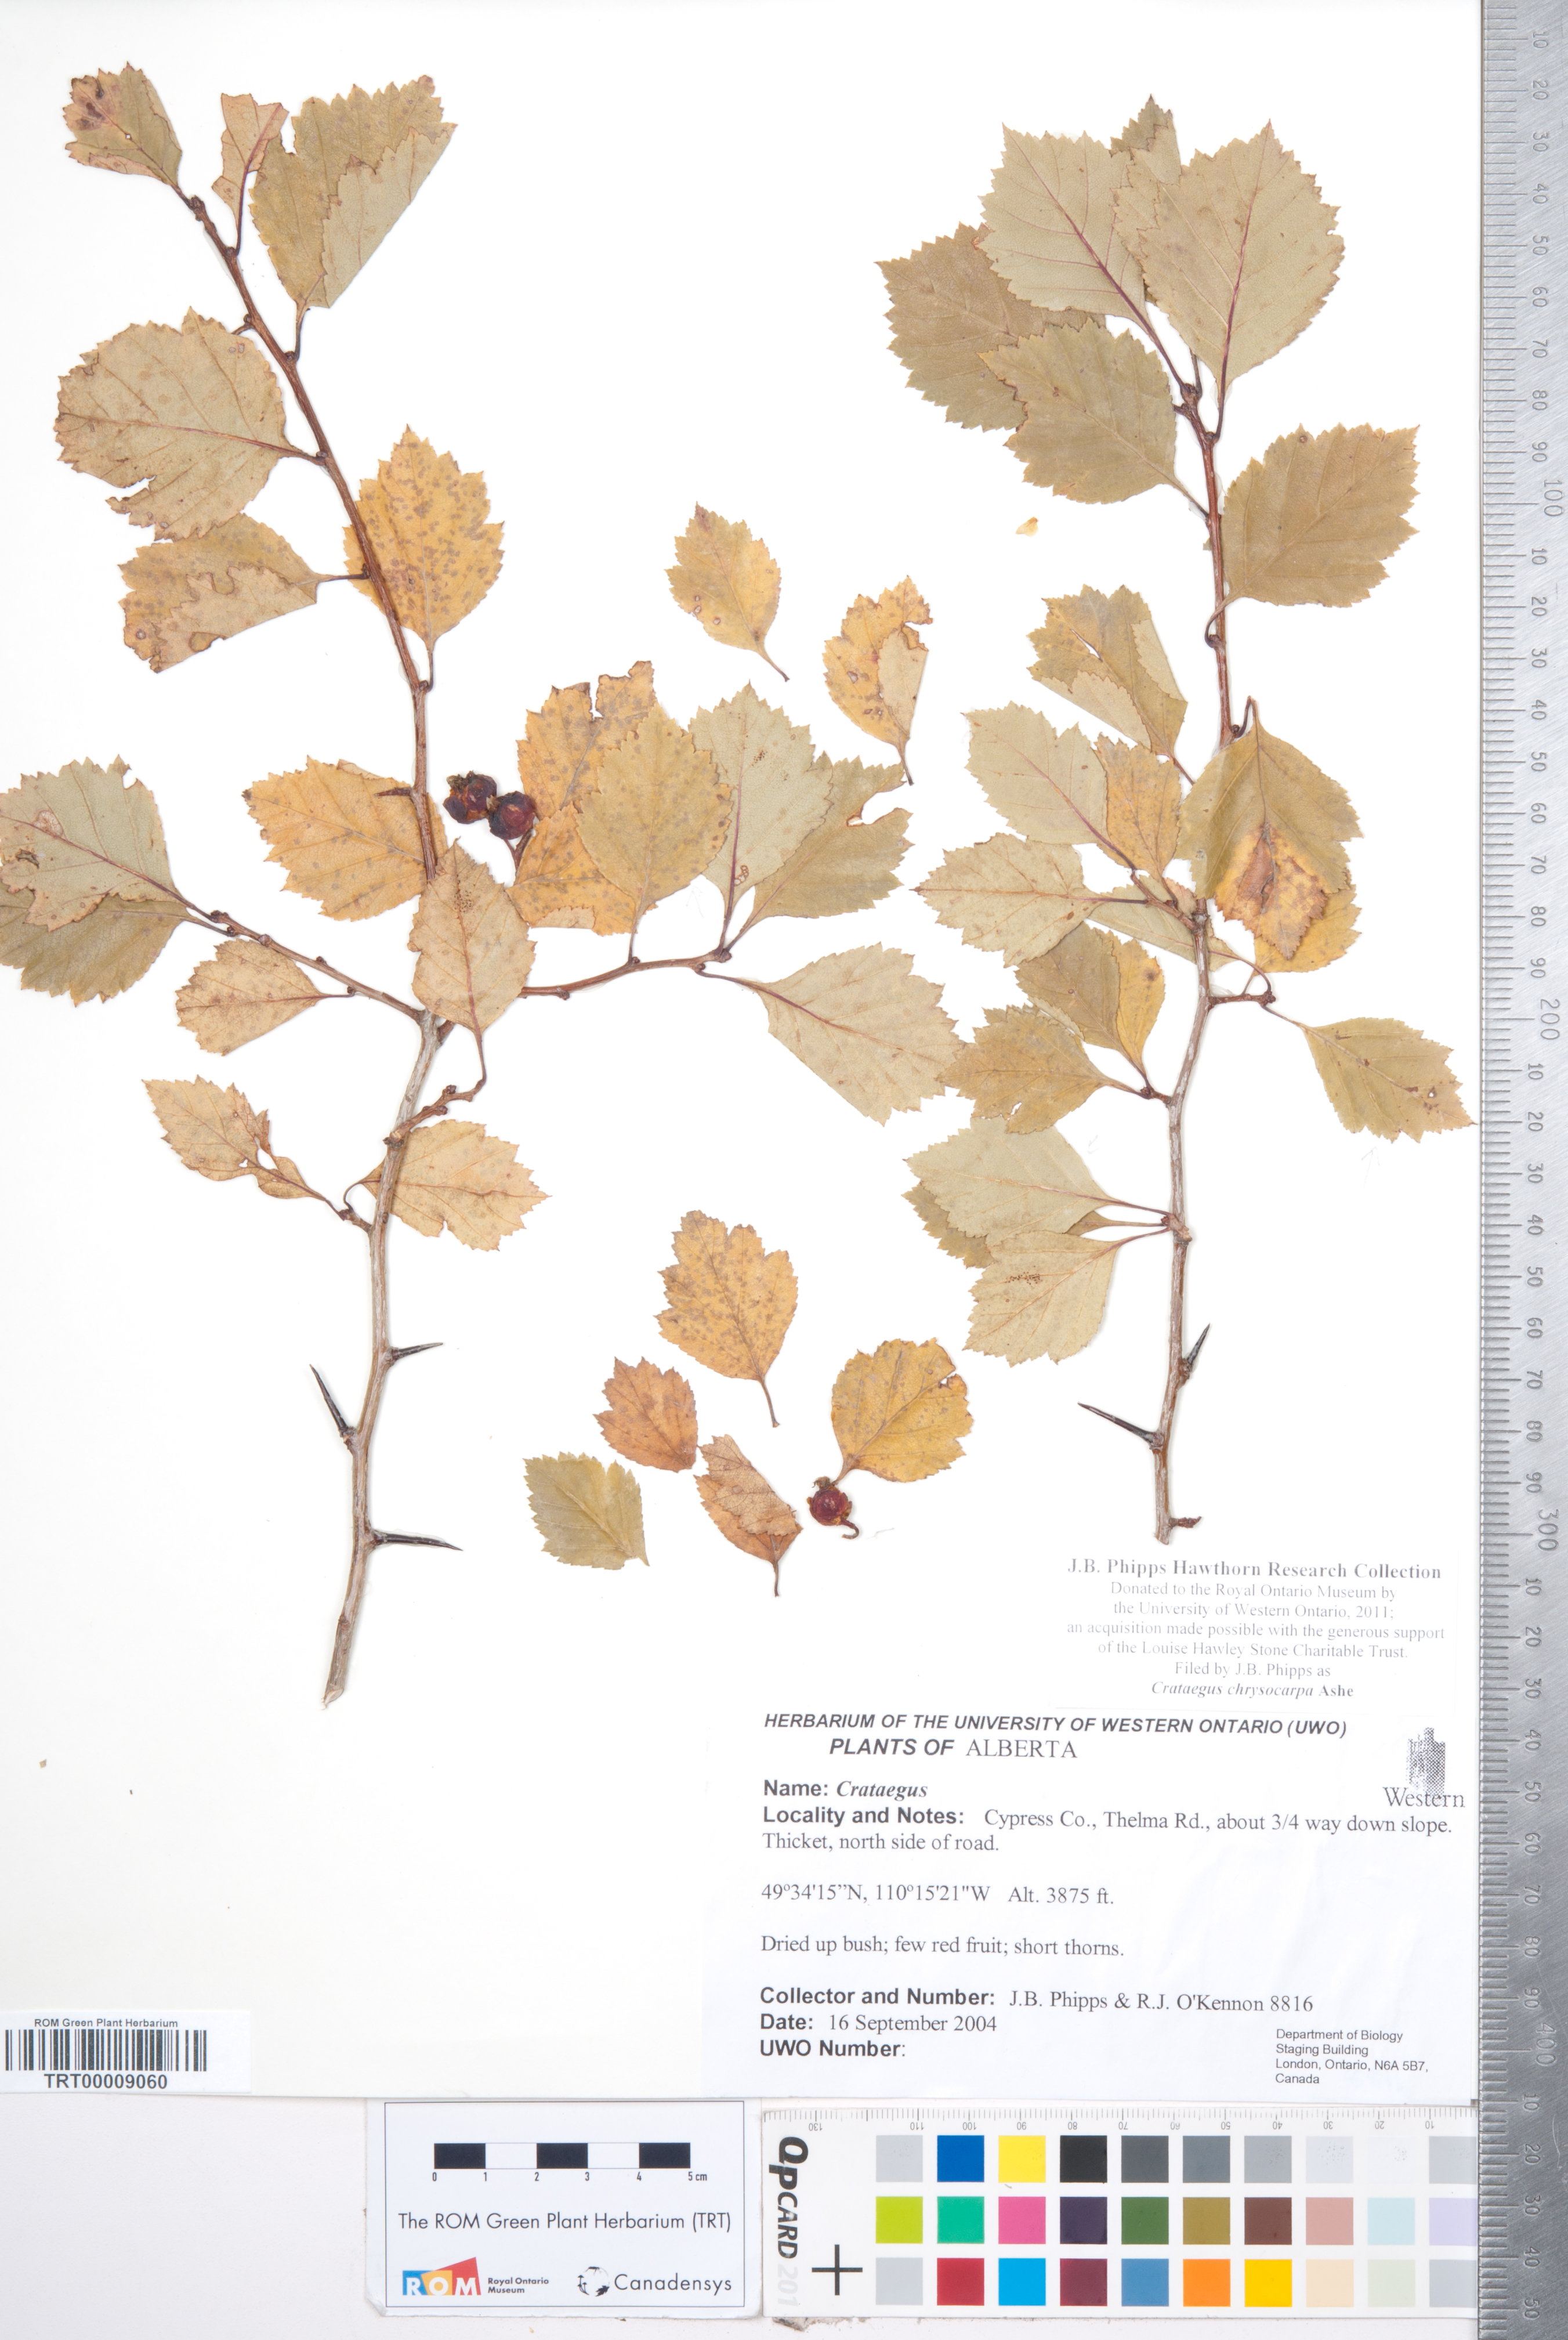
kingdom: Plantae
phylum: Tracheophyta
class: Magnoliopsida
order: Rosales
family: Rosaceae
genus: Crataegus
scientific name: Crataegus chrysocarpa
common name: Fire-berry hawthorn
